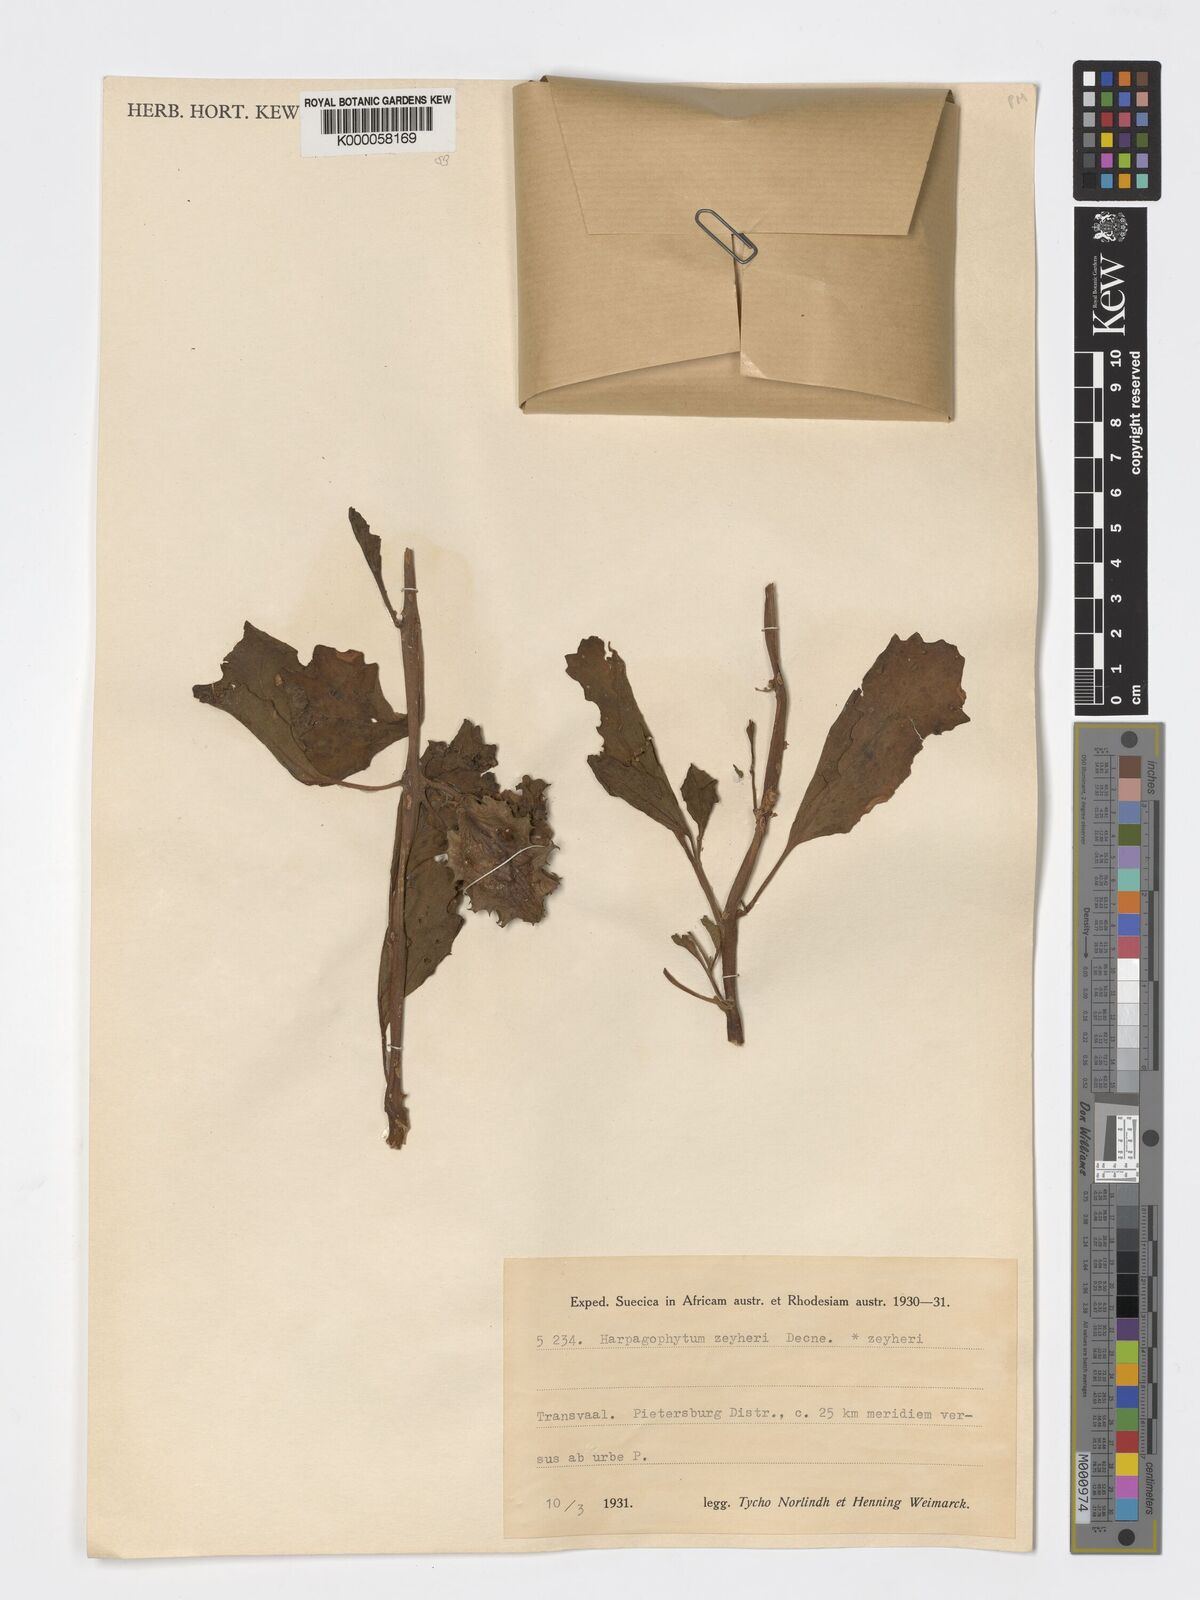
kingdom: Plantae
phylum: Tracheophyta
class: Magnoliopsida
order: Lamiales
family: Pedaliaceae
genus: Harpagophytum
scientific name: Harpagophytum zeyheri
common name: Grappleplant
